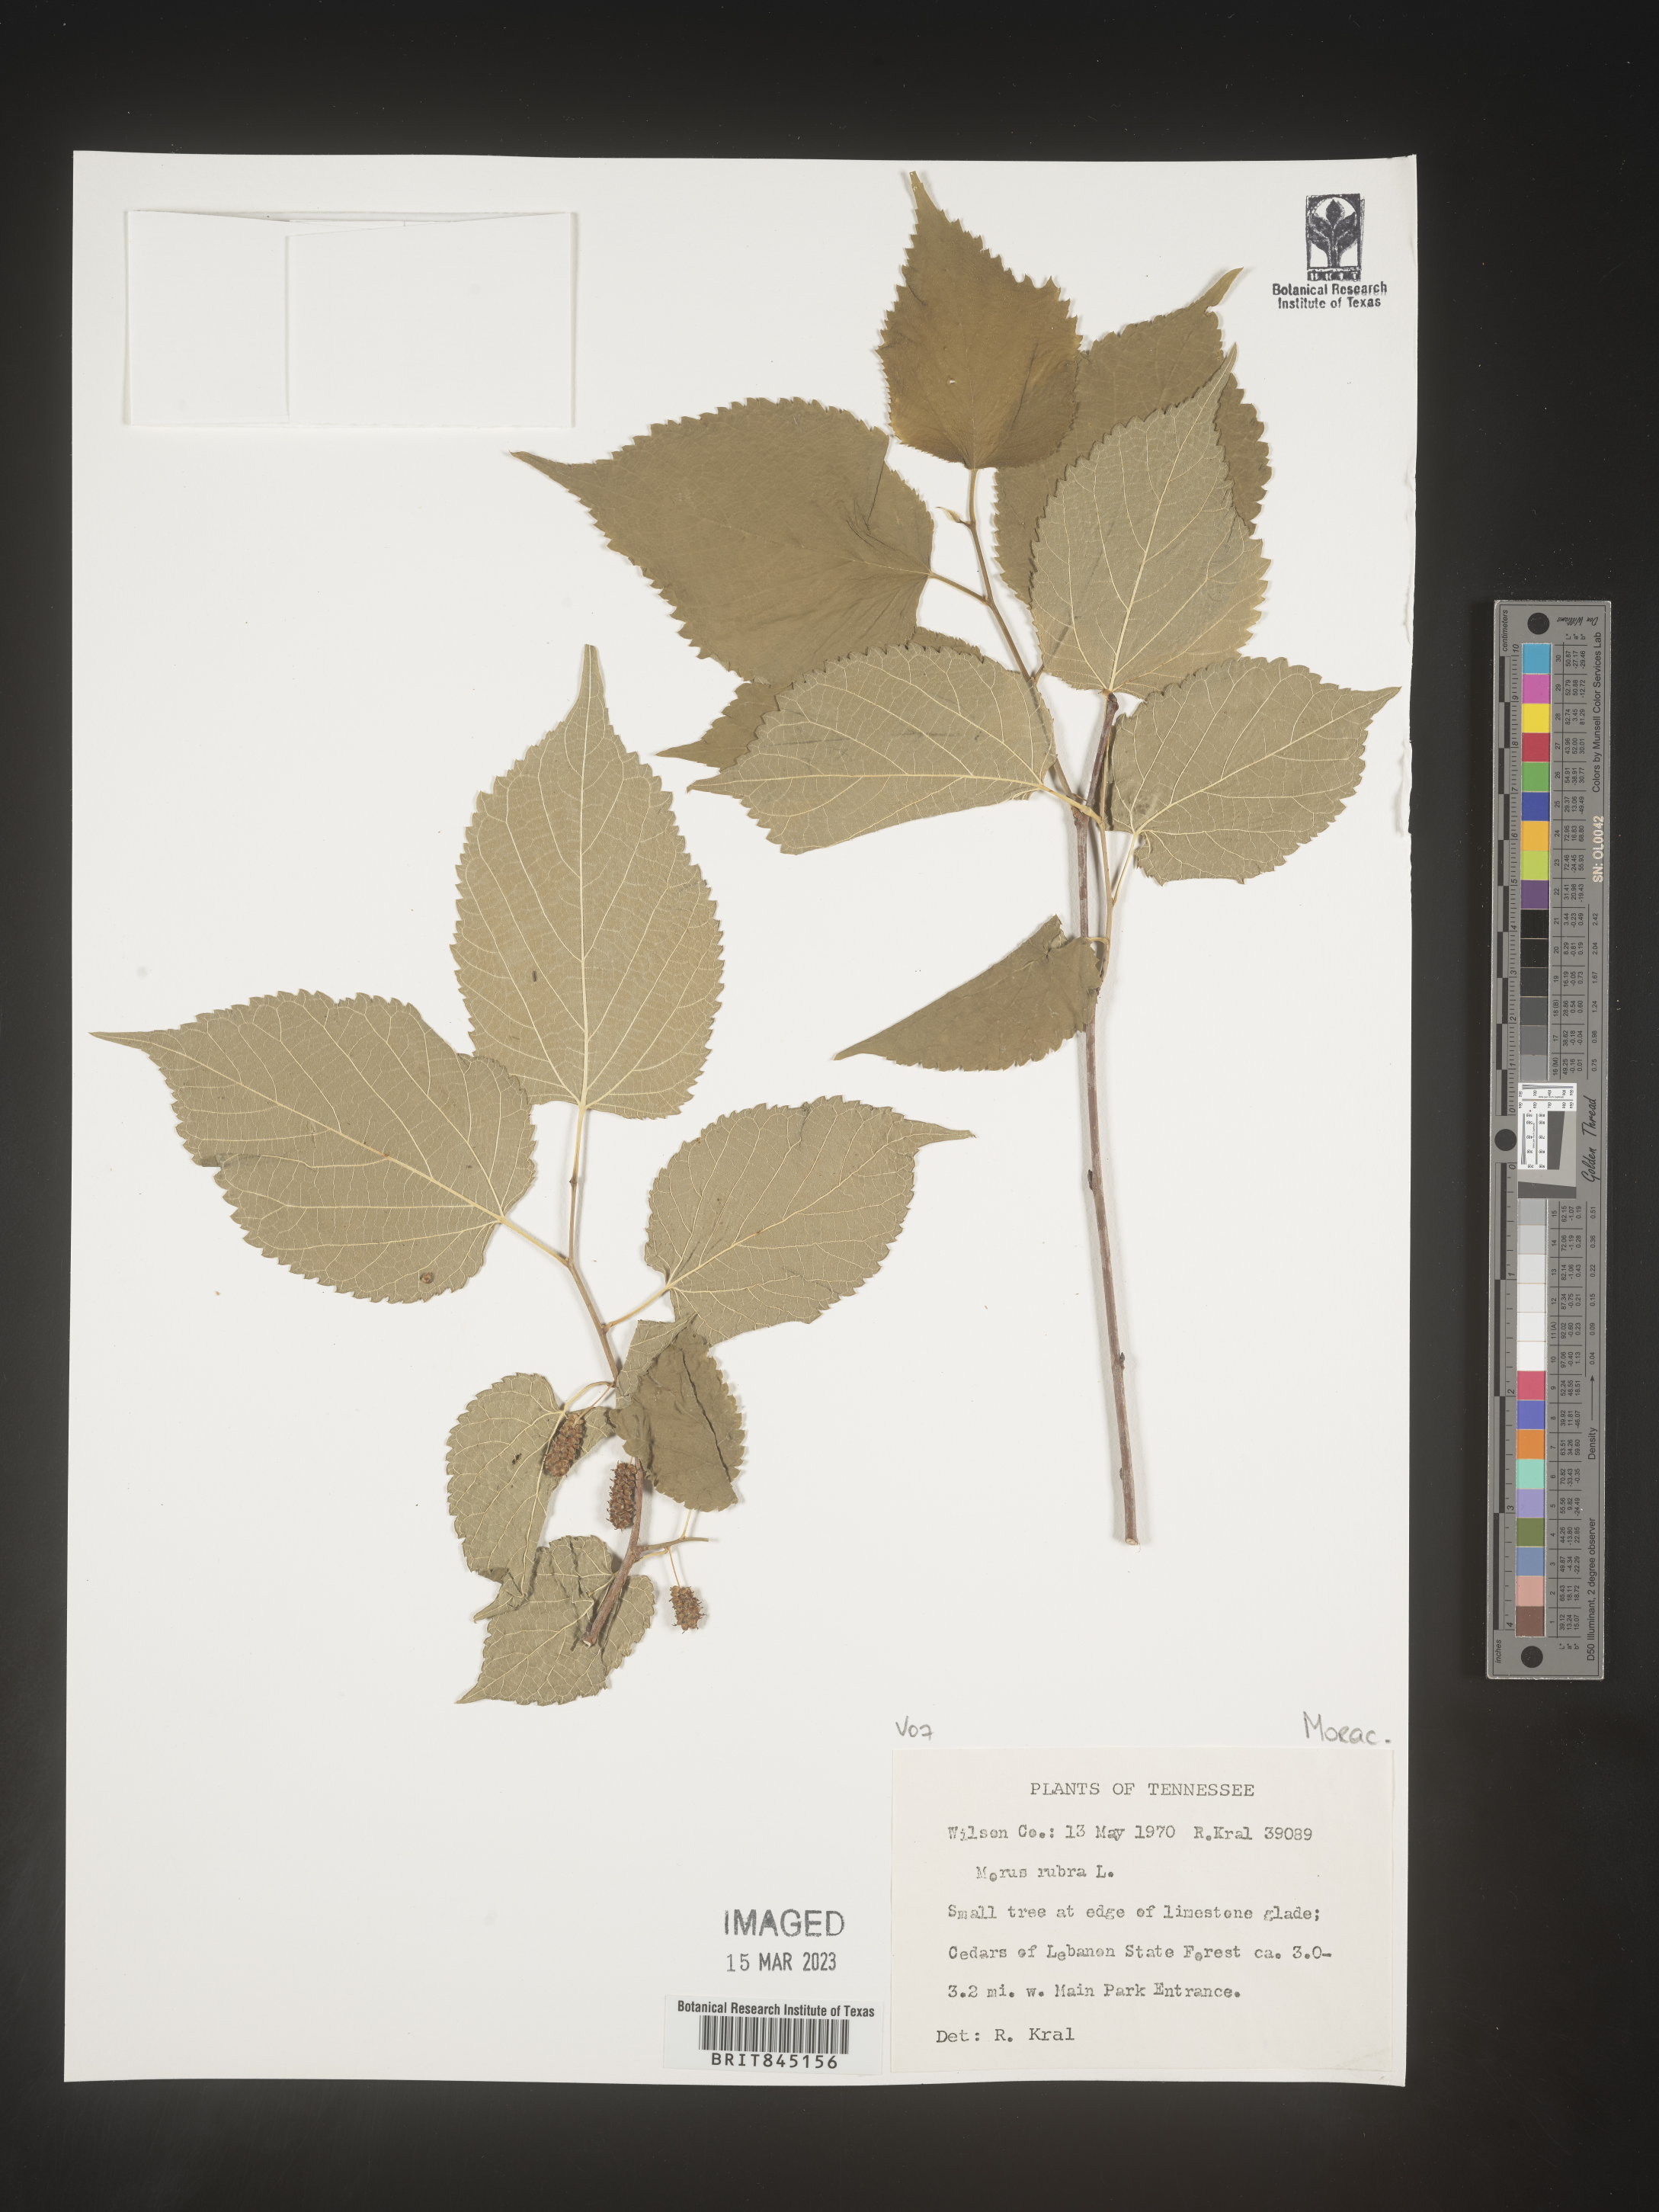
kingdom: Plantae
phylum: Tracheophyta
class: Magnoliopsida
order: Rosales
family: Moraceae
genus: Morus
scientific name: Morus rubra
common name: Red mulberry
